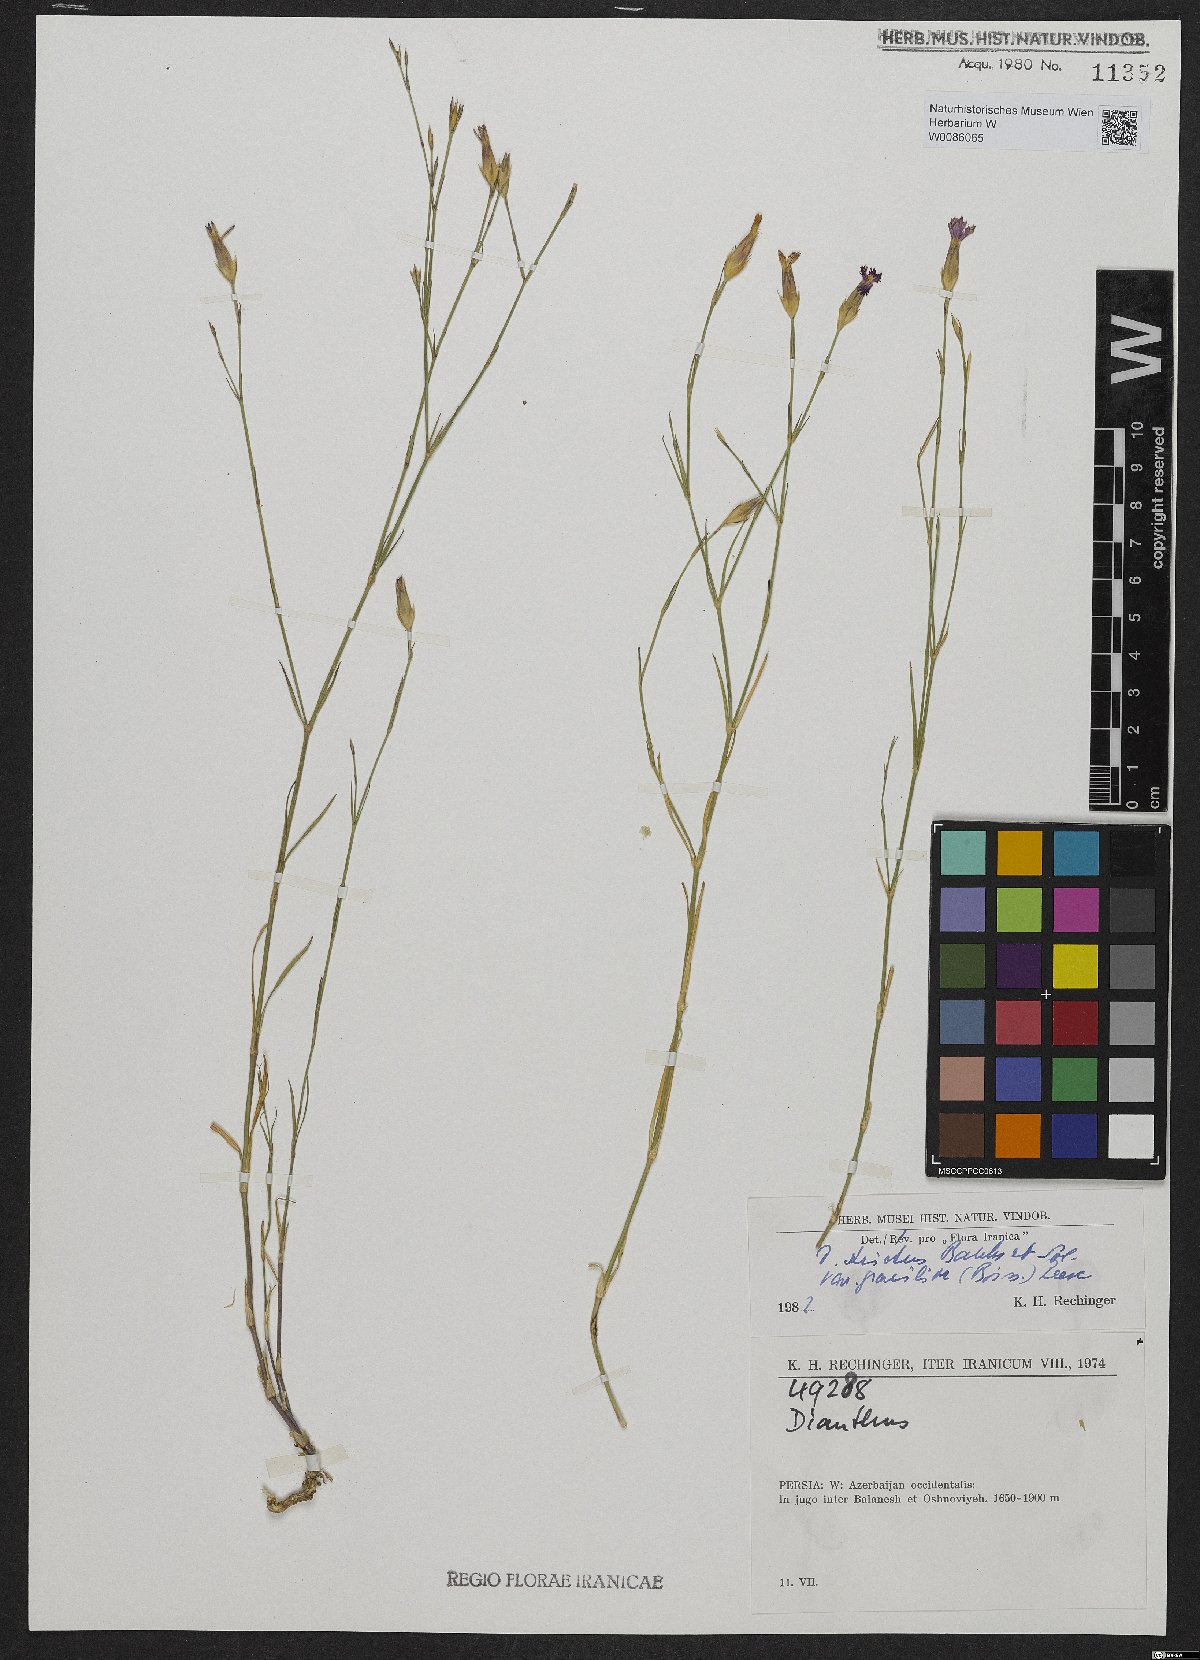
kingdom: Plantae
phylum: Tracheophyta
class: Magnoliopsida
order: Caryophyllales
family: Caryophyllaceae
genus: Dianthus
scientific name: Dianthus strictus
